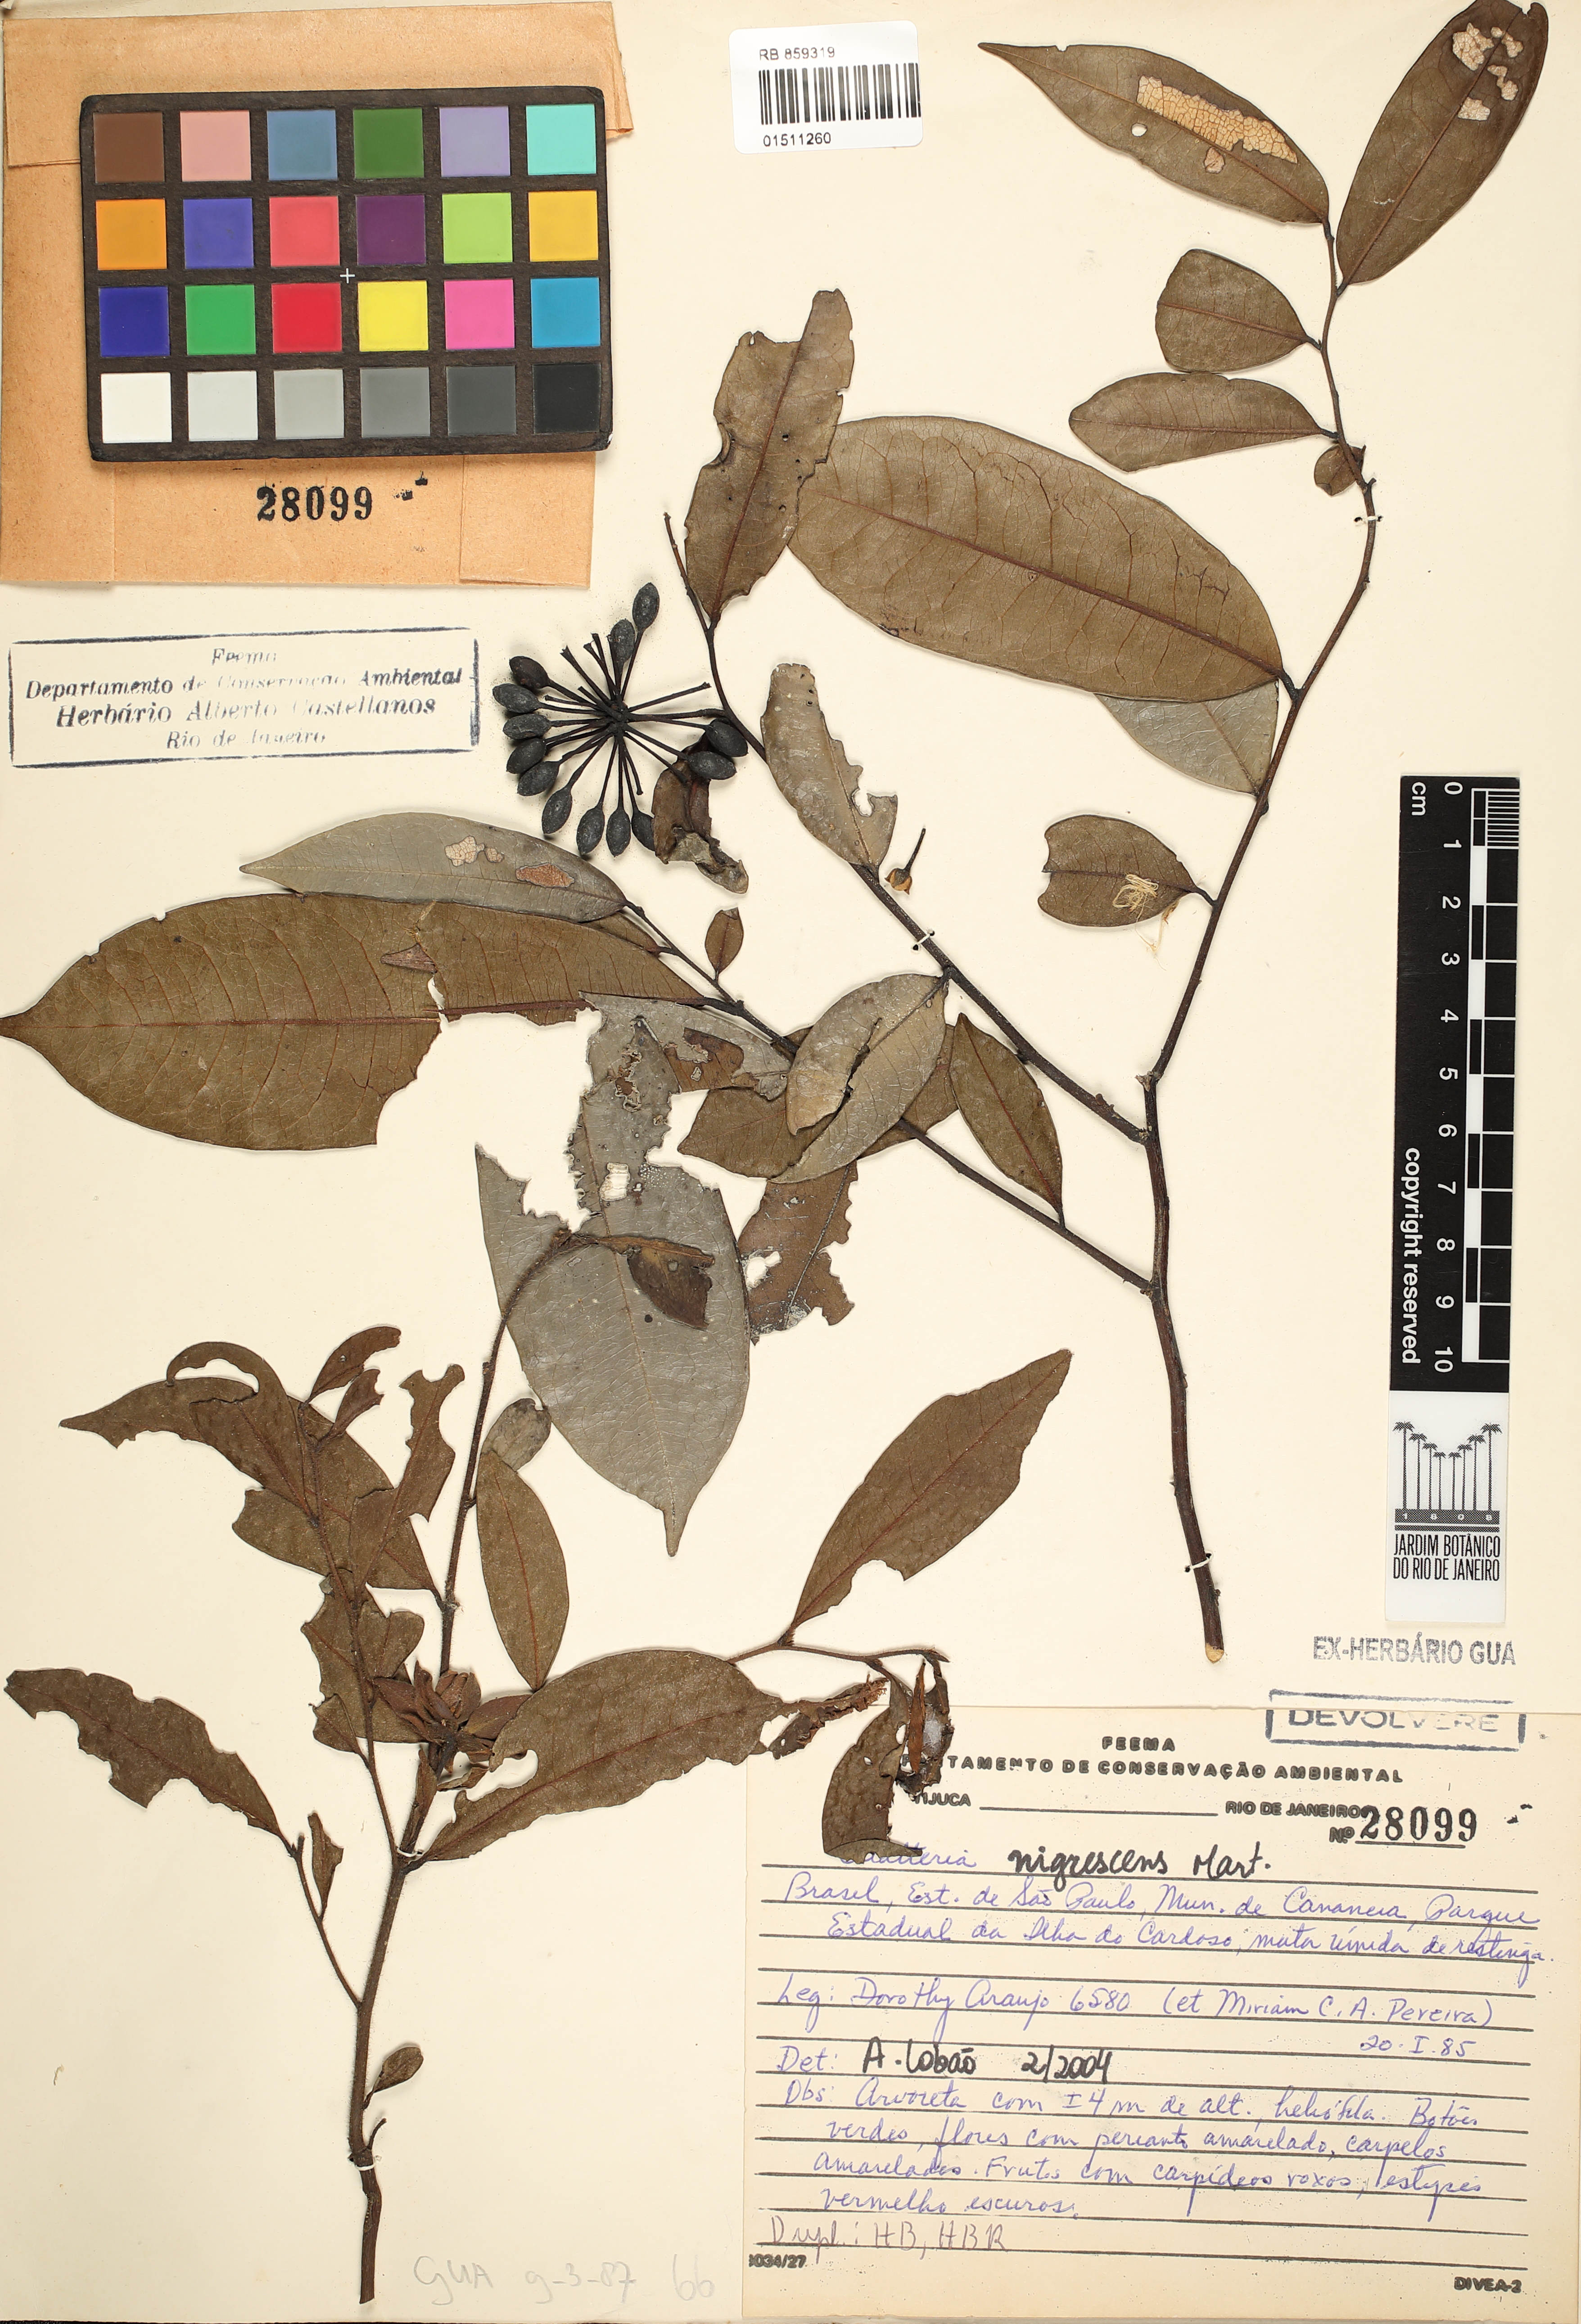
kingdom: Plantae
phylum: Tracheophyta
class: Magnoliopsida
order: Magnoliales
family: Annonaceae
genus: Guatteria
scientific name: Guatteria australis
